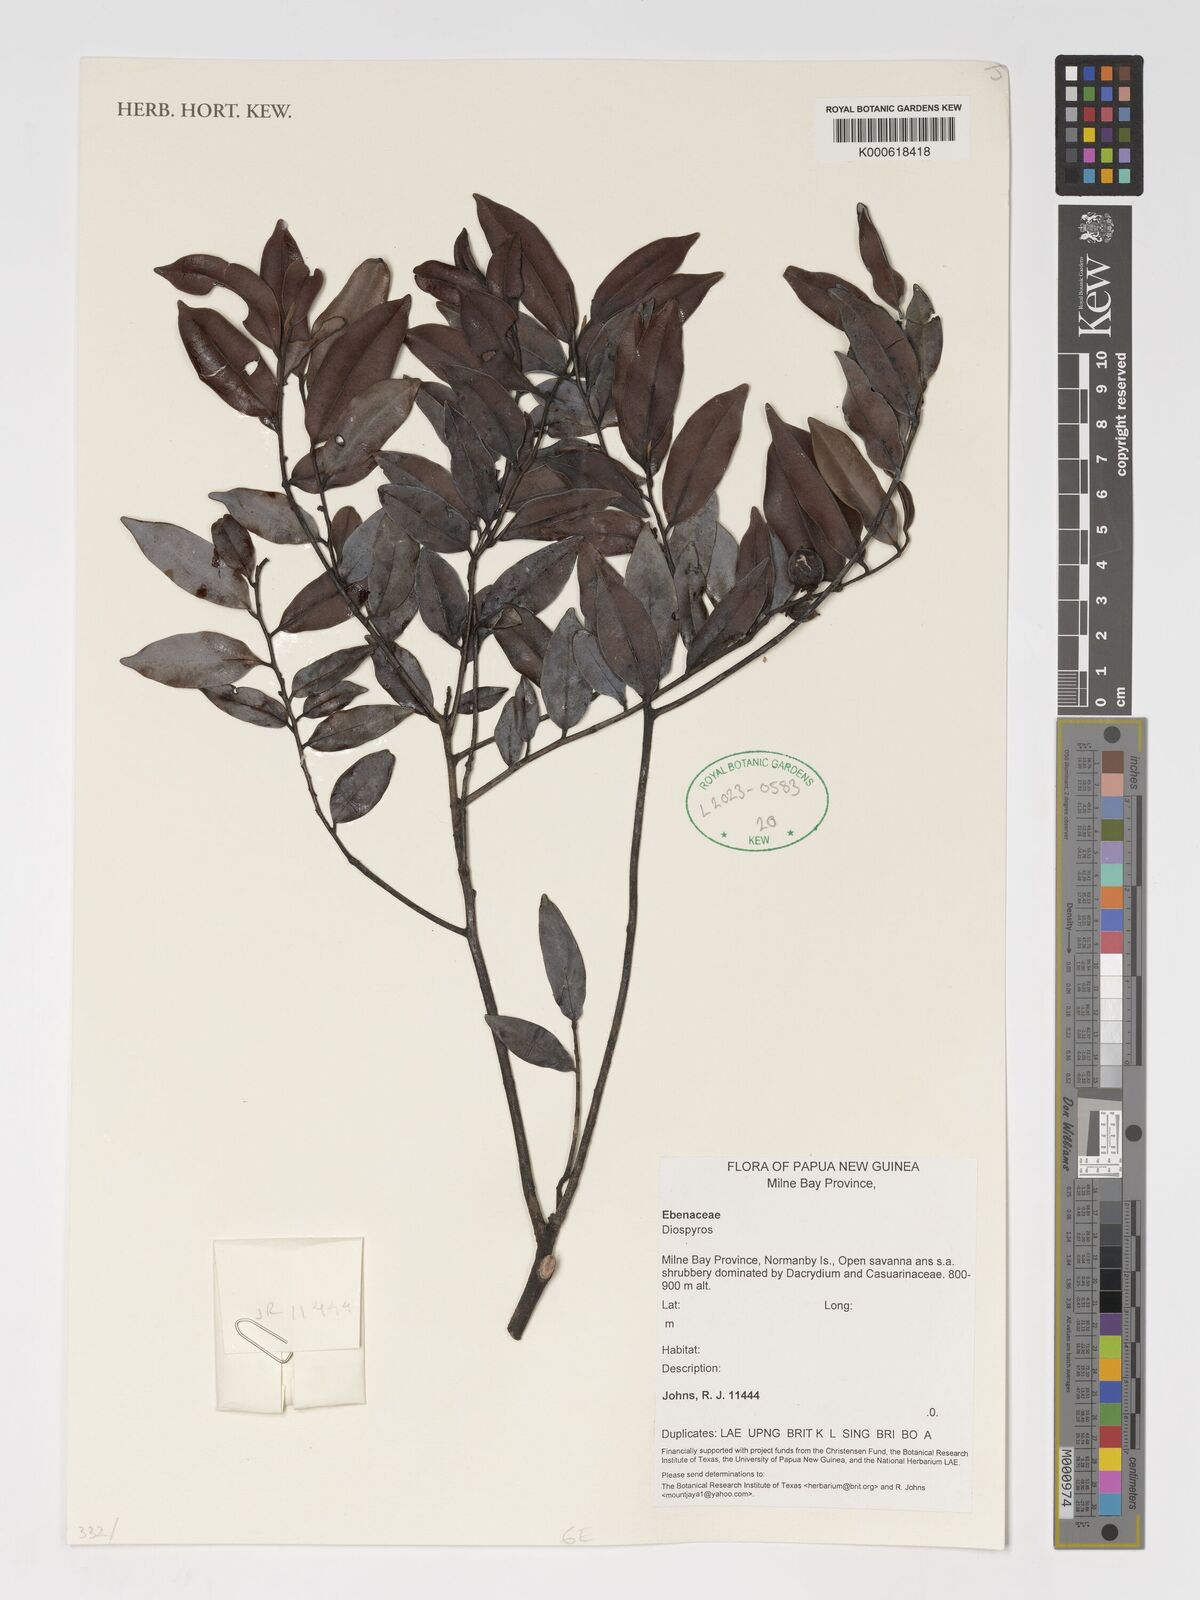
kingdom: Plantae
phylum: Tracheophyta
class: Magnoliopsida
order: Ericales
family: Ebenaceae
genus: Diospyros
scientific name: Diospyros
